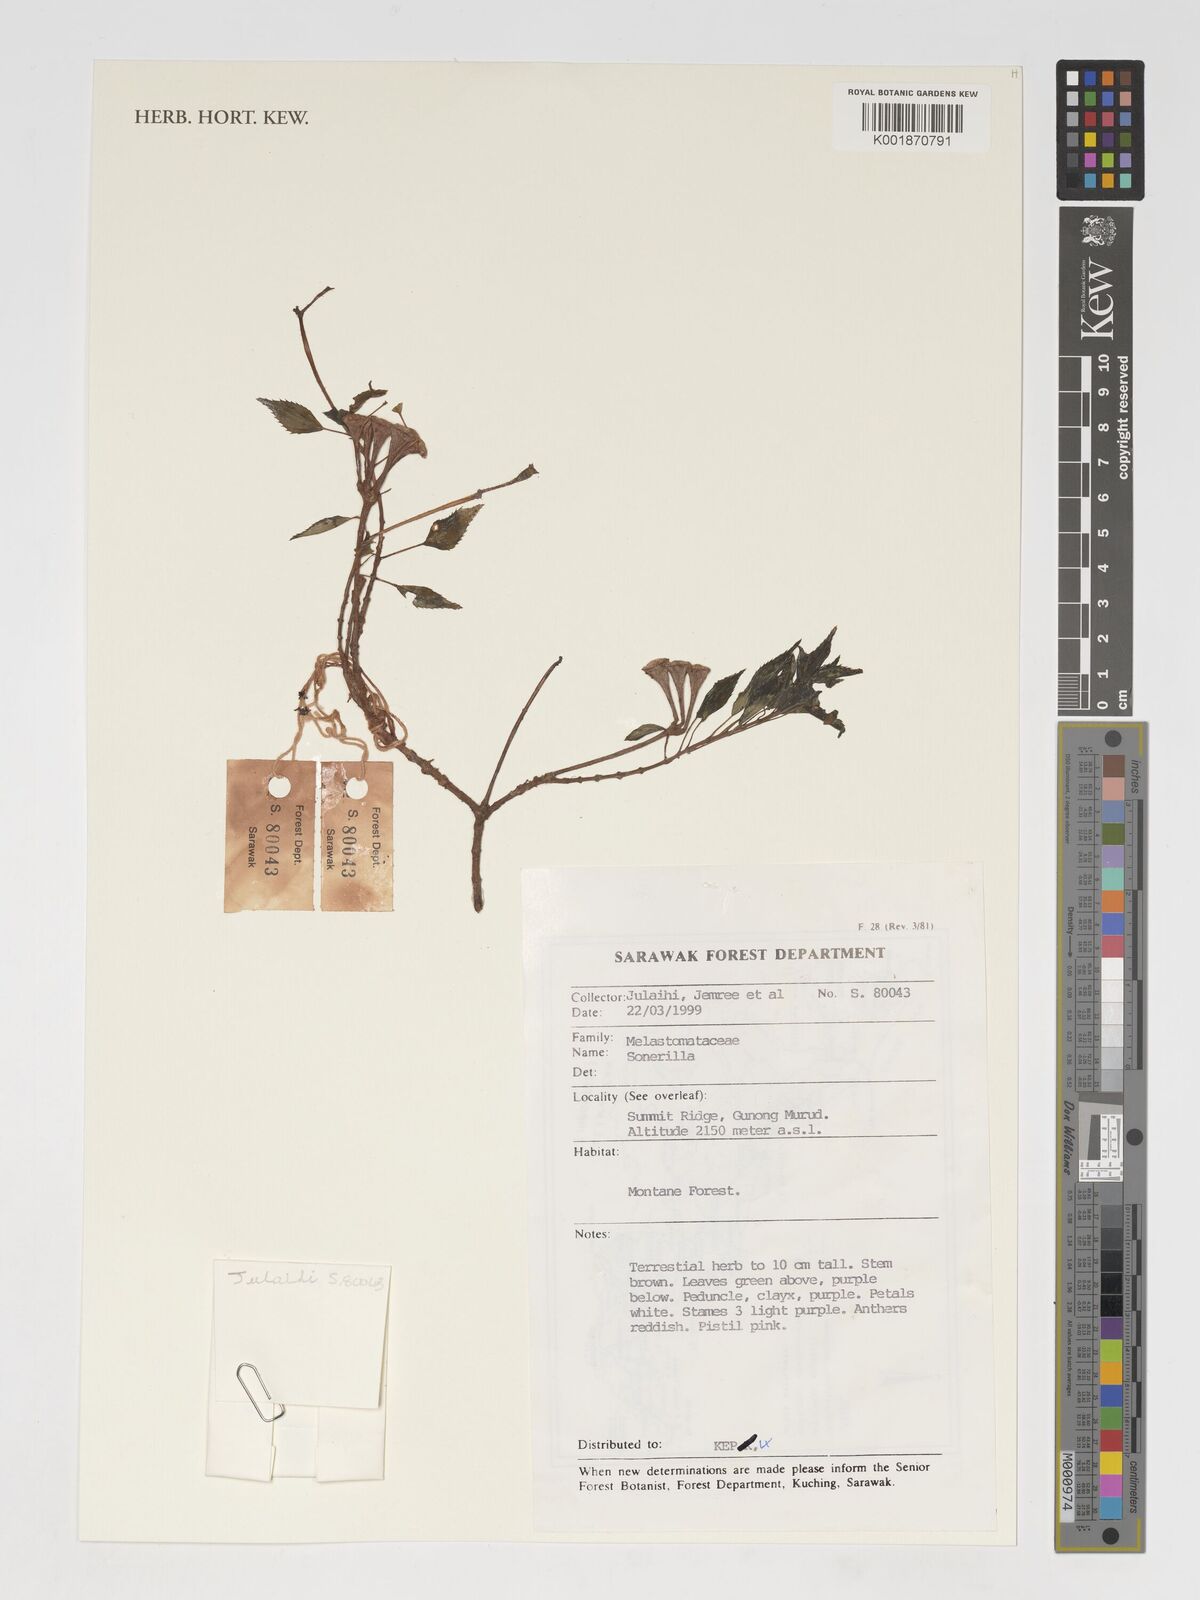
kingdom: Plantae
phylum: Tracheophyta
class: Magnoliopsida
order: Myrtales
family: Melastomataceae
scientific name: Melastomataceae
